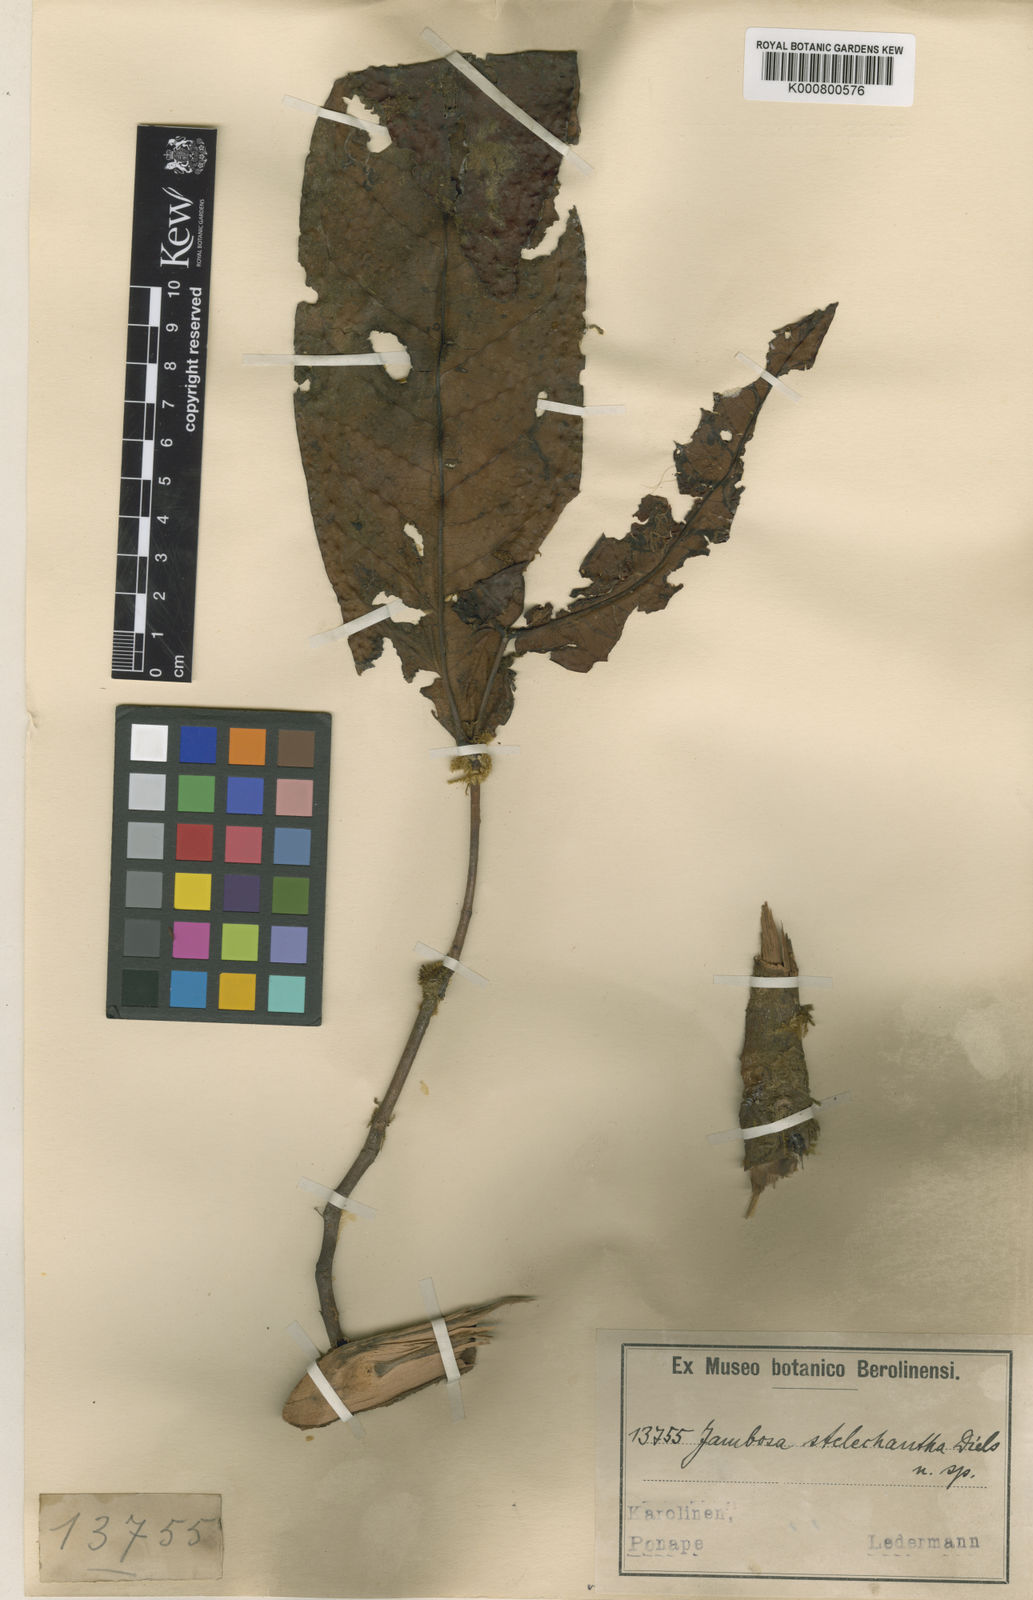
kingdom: Plantae
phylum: Tracheophyta
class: Magnoliopsida
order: Myrtales
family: Myrtaceae
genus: Syzygium
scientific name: Syzygium stelechanthum
